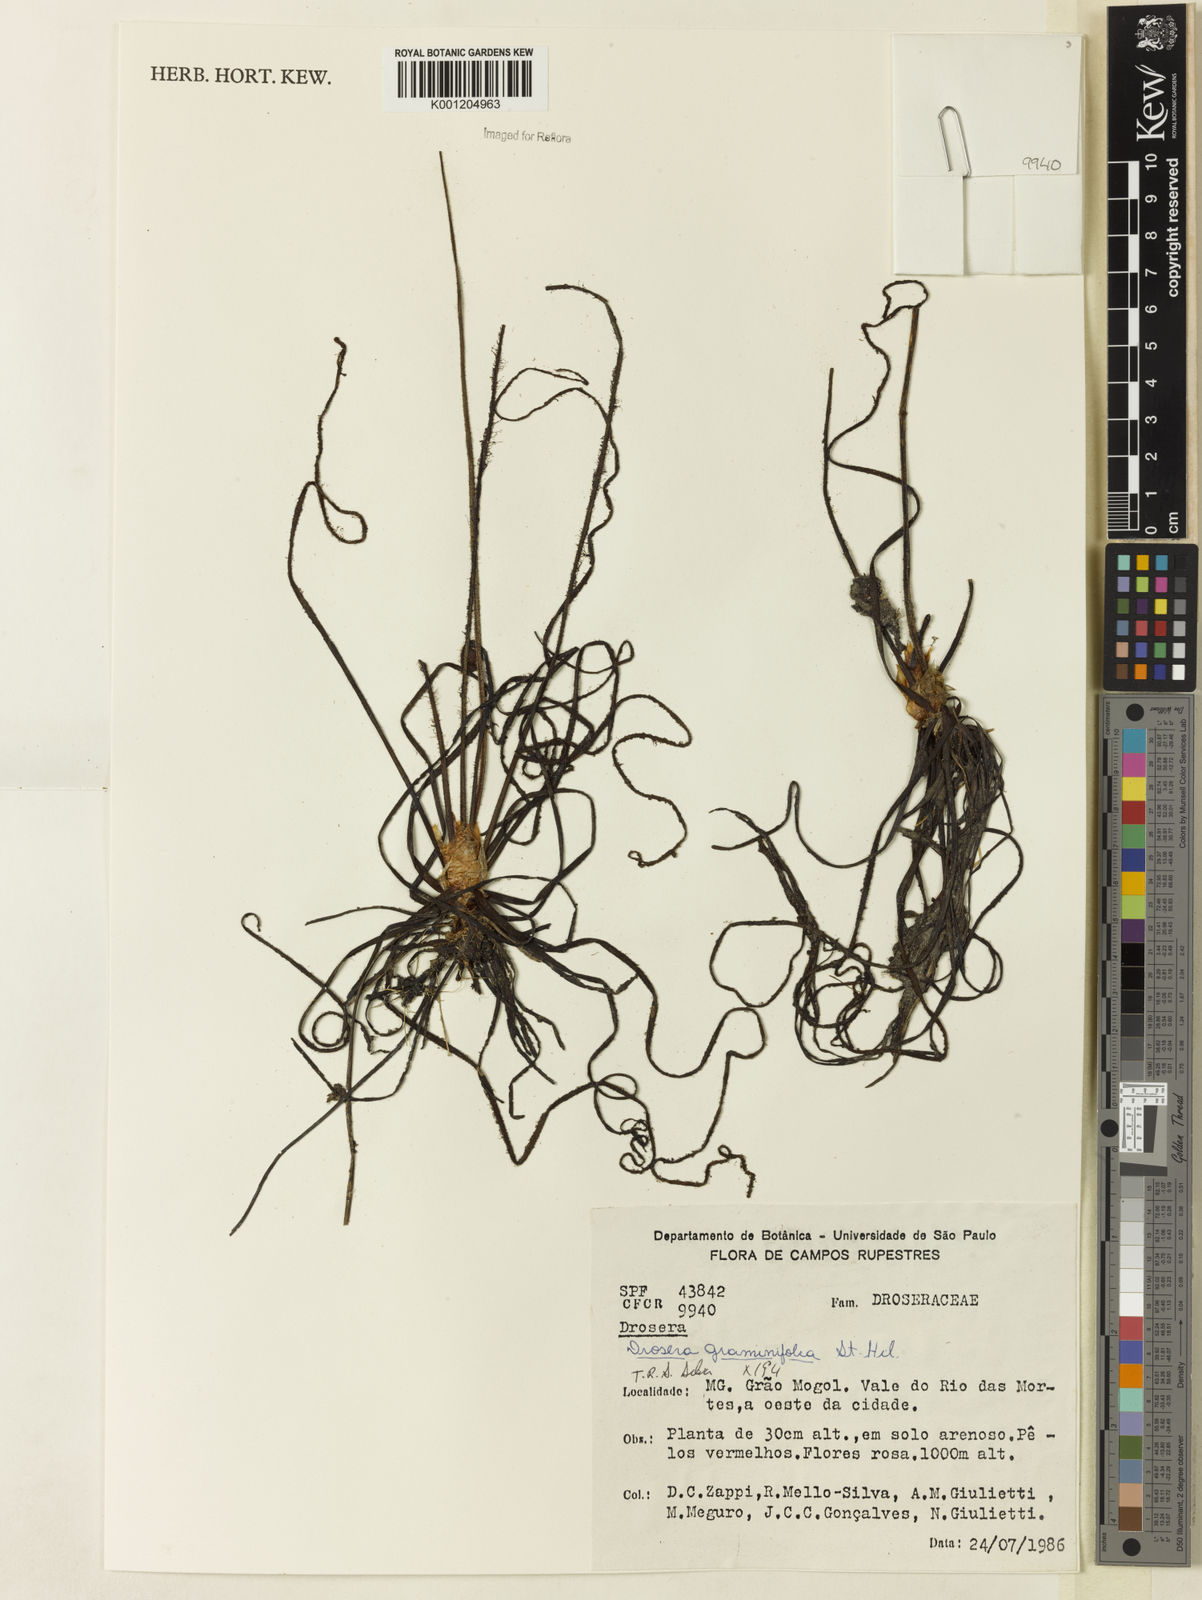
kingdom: Plantae
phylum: Tracheophyta
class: Magnoliopsida
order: Caryophyllales
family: Droseraceae
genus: Drosera
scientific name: Drosera graminifolia
